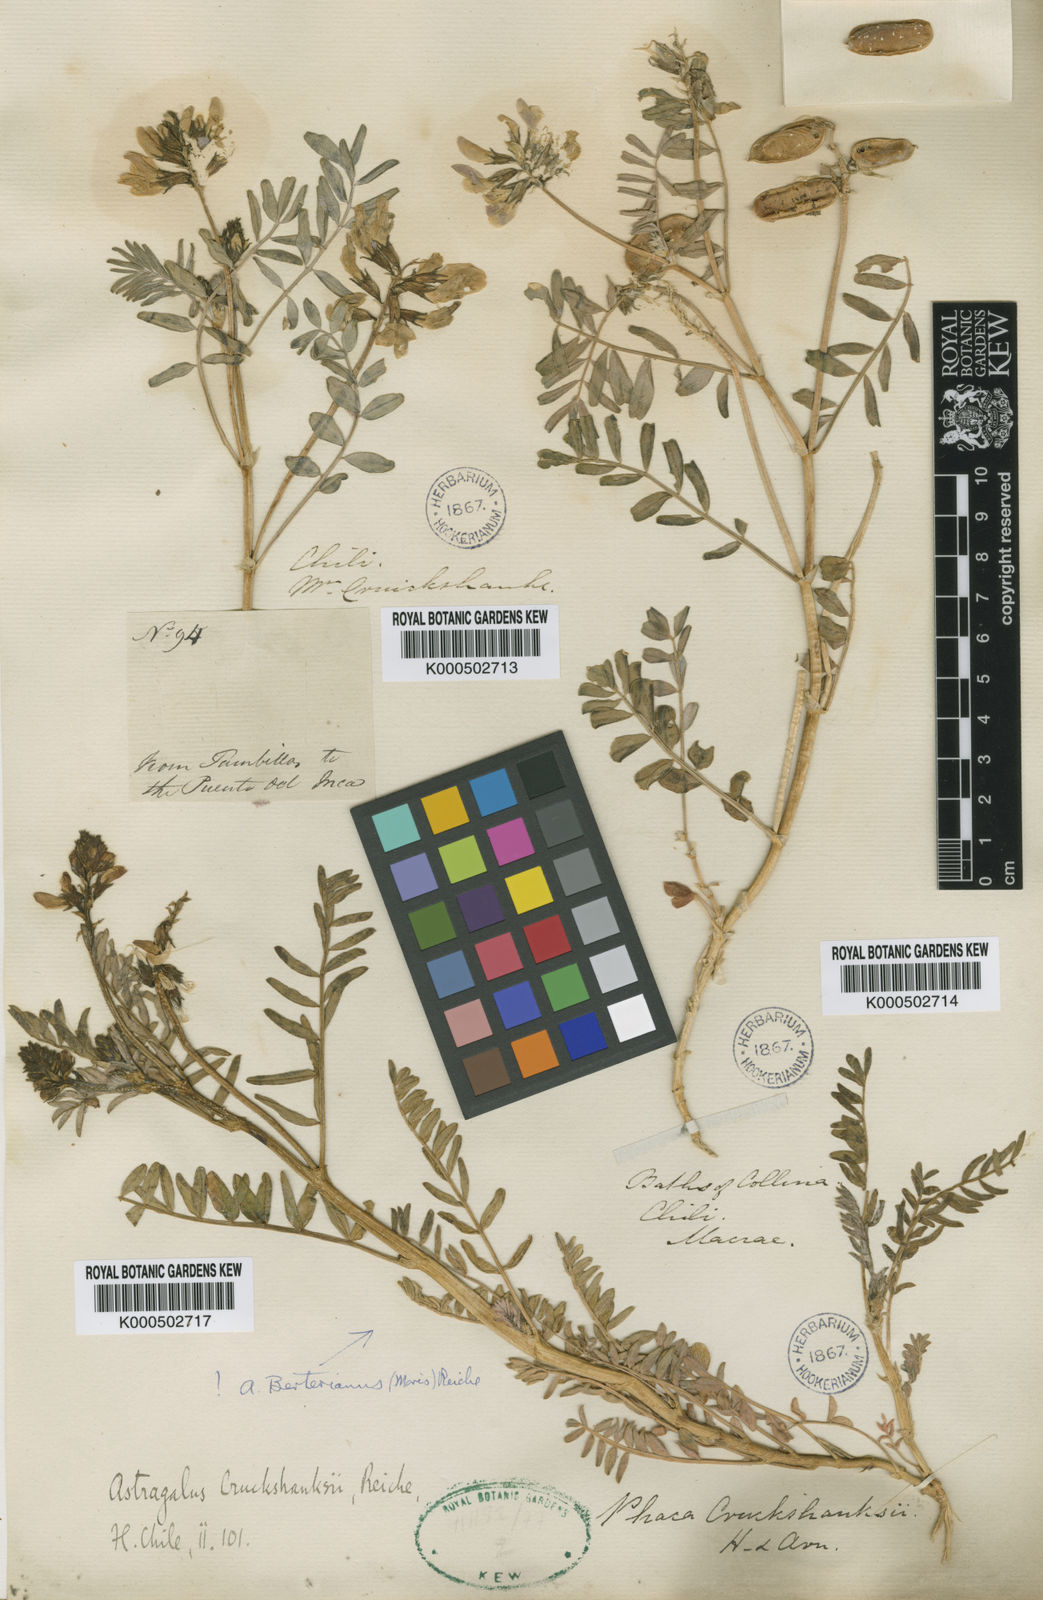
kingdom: Plantae
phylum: Tracheophyta
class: Magnoliopsida
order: Fabales
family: Fabaceae
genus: Astragalus
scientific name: Astragalus
